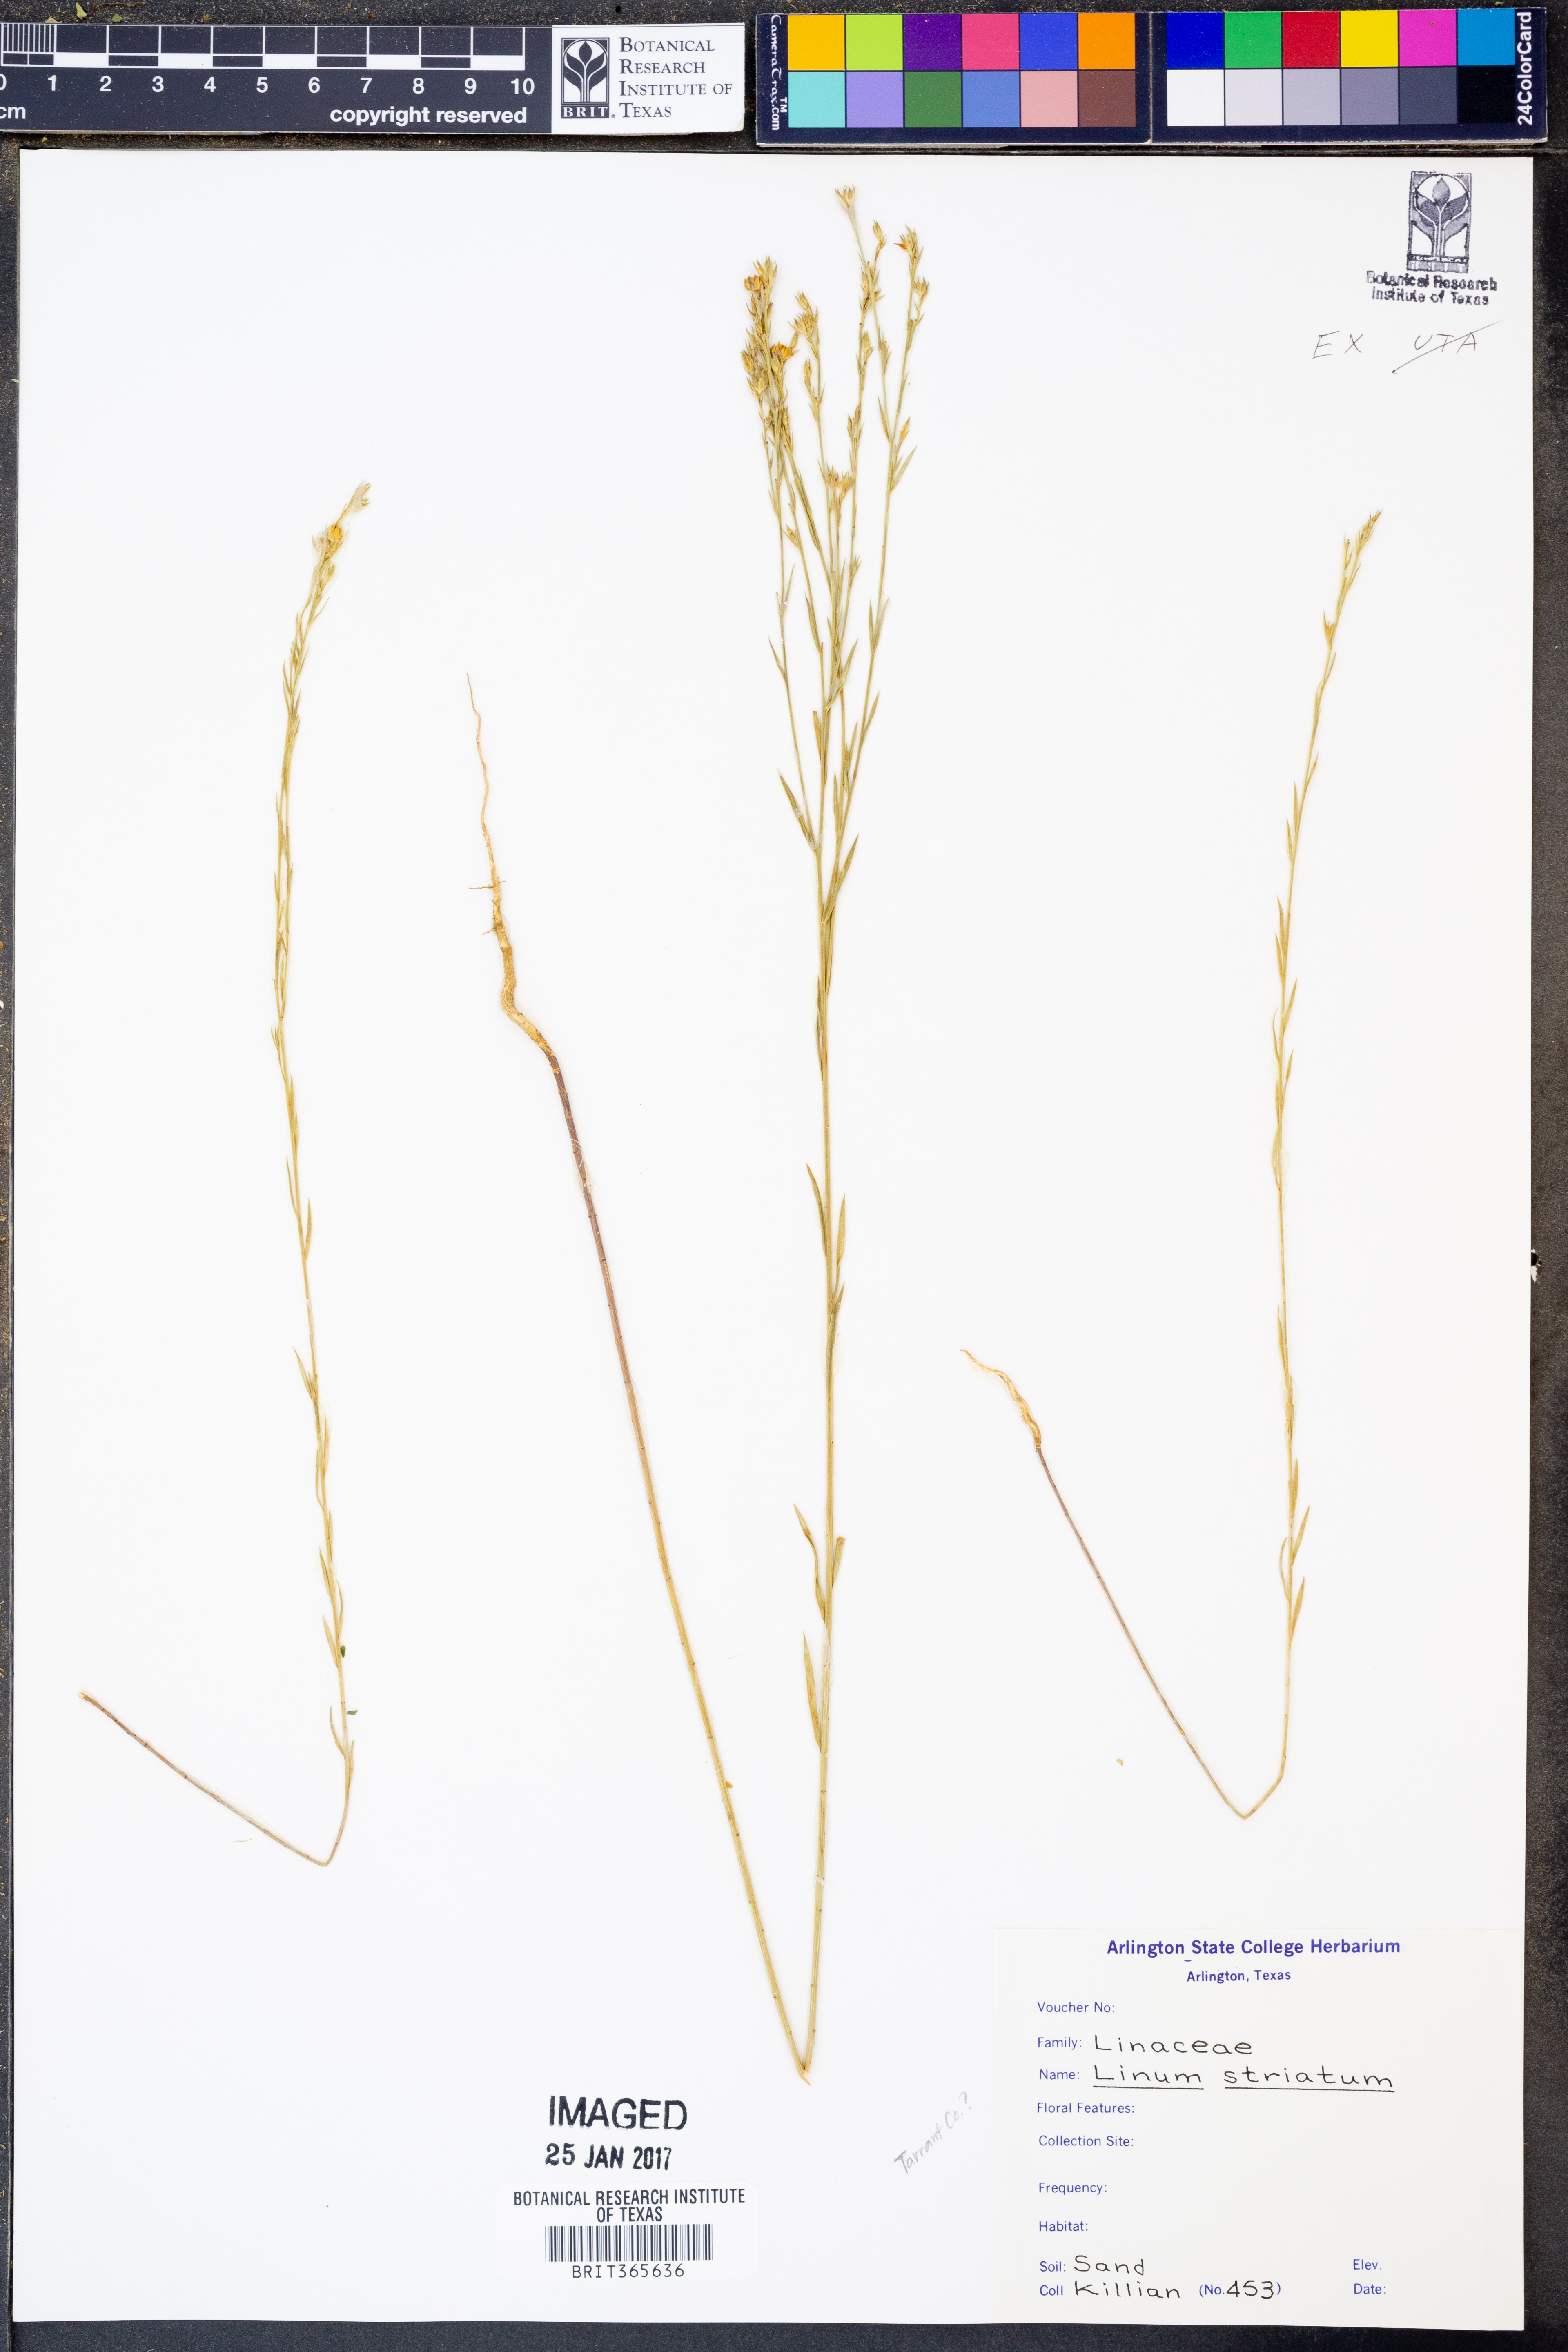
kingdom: Plantae
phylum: Tracheophyta
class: Magnoliopsida
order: Malpighiales
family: Linaceae
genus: Linum
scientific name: Linum striatum
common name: Ridged yellow flax
